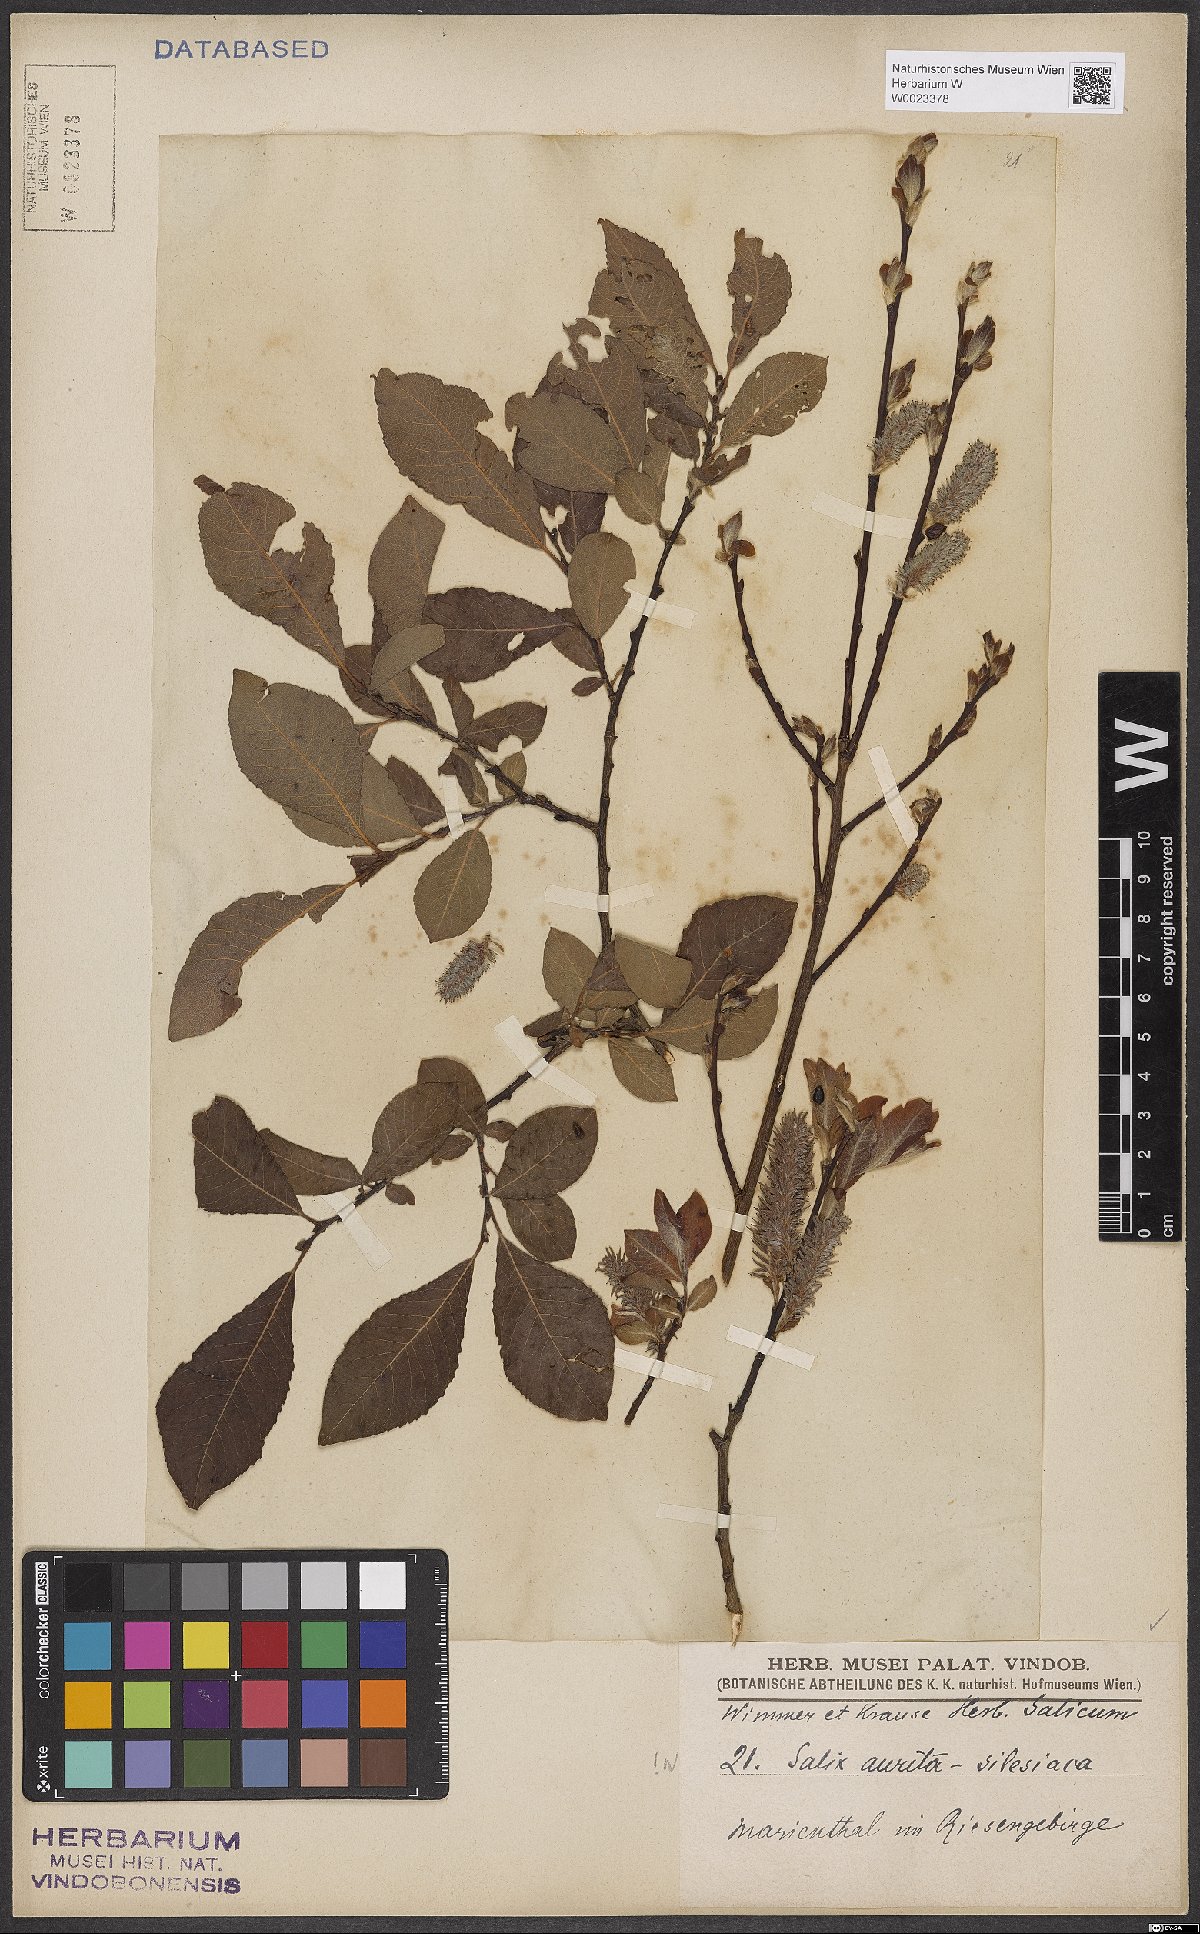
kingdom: Plantae
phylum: Tracheophyta
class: Magnoliopsida
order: Malpighiales
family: Salicaceae
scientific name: Salicaceae
